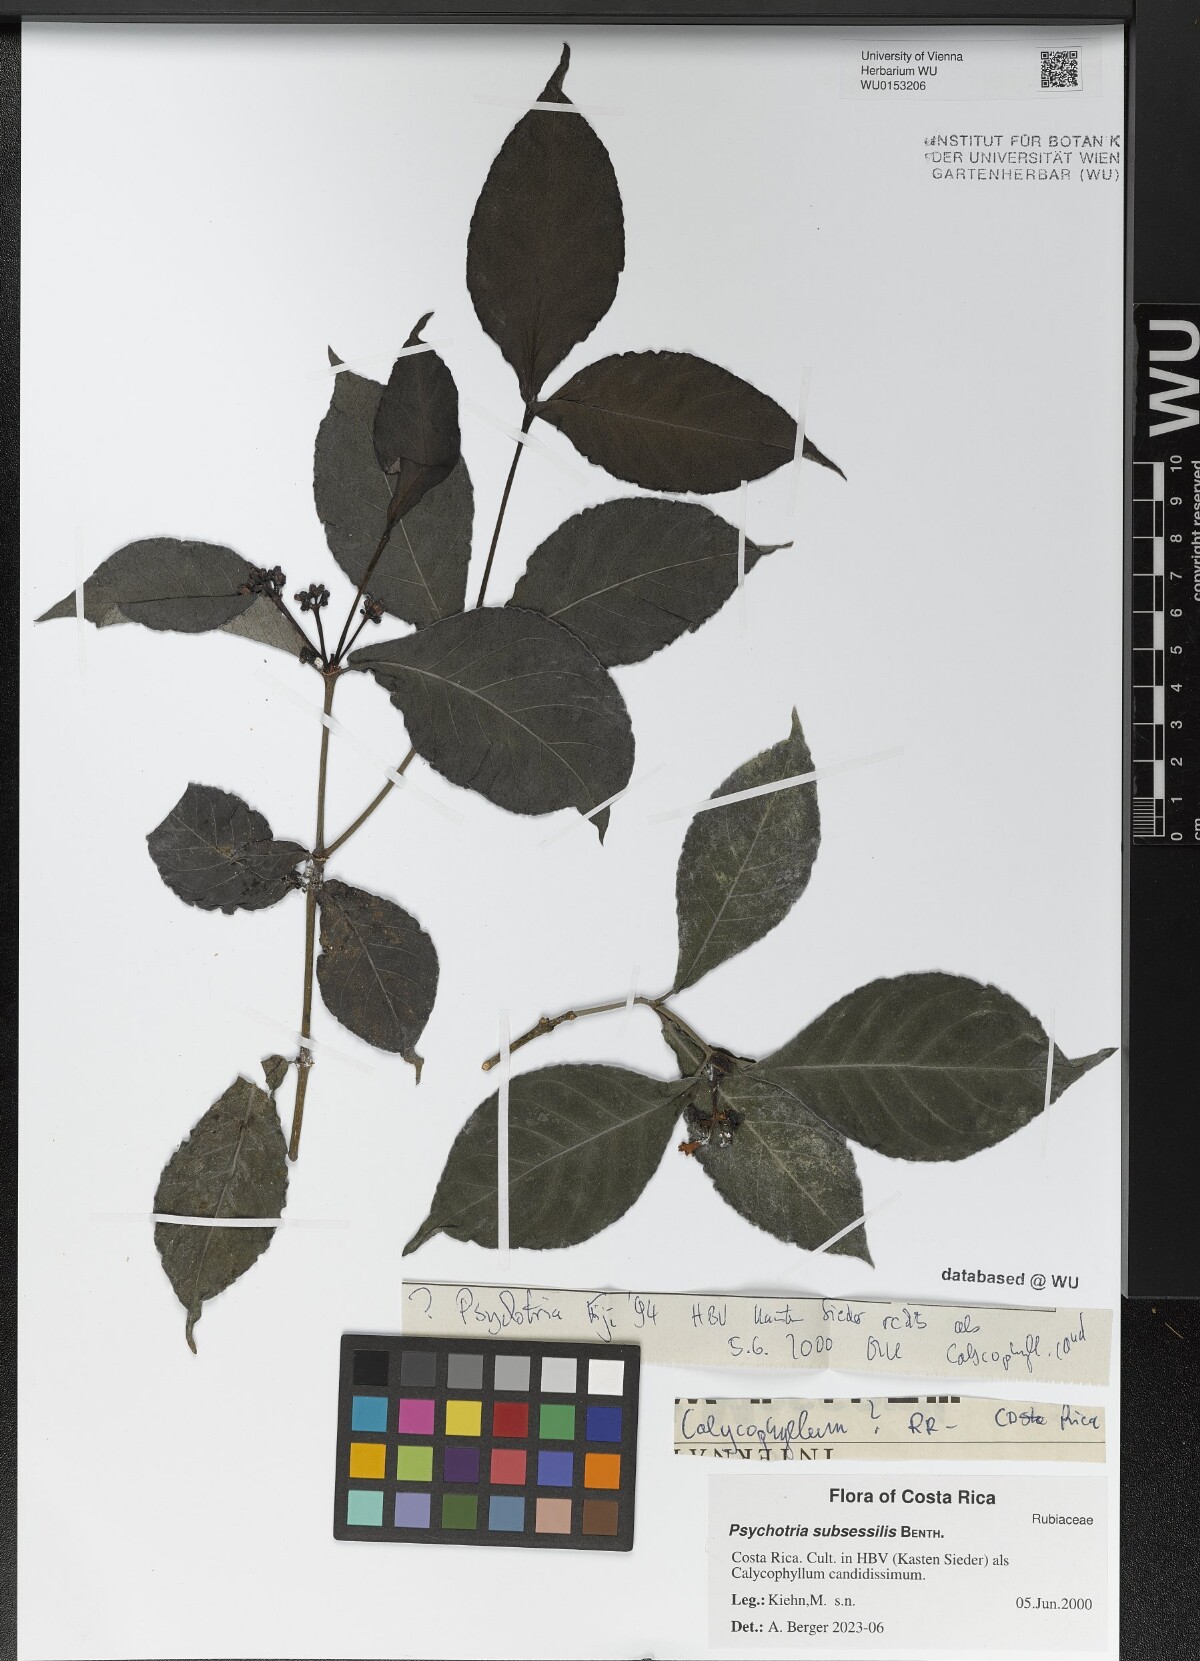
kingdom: Plantae
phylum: Tracheophyta
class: Magnoliopsida
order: Gentianales
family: Rubiaceae
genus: Psychotria
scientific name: Psychotria subsessilis
